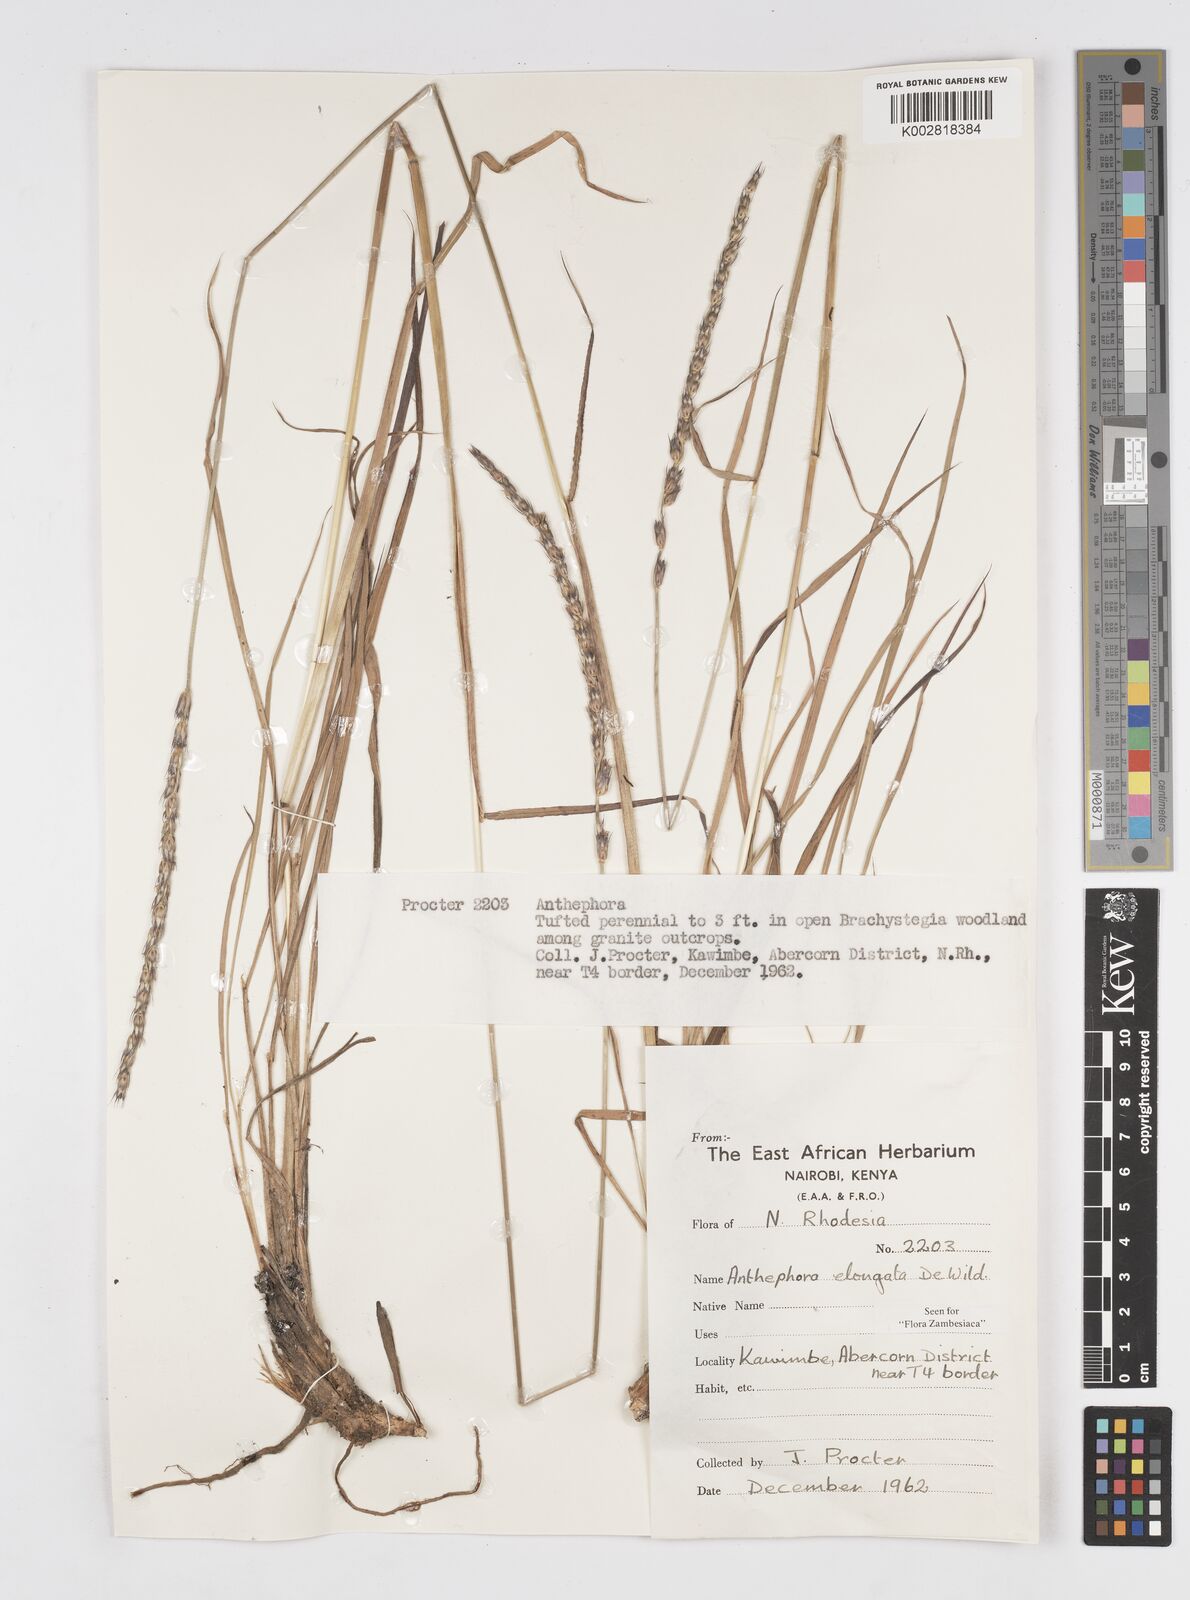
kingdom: Plantae
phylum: Tracheophyta
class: Liliopsida
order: Poales
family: Poaceae
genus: Anthephora
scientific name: Anthephora elongata
